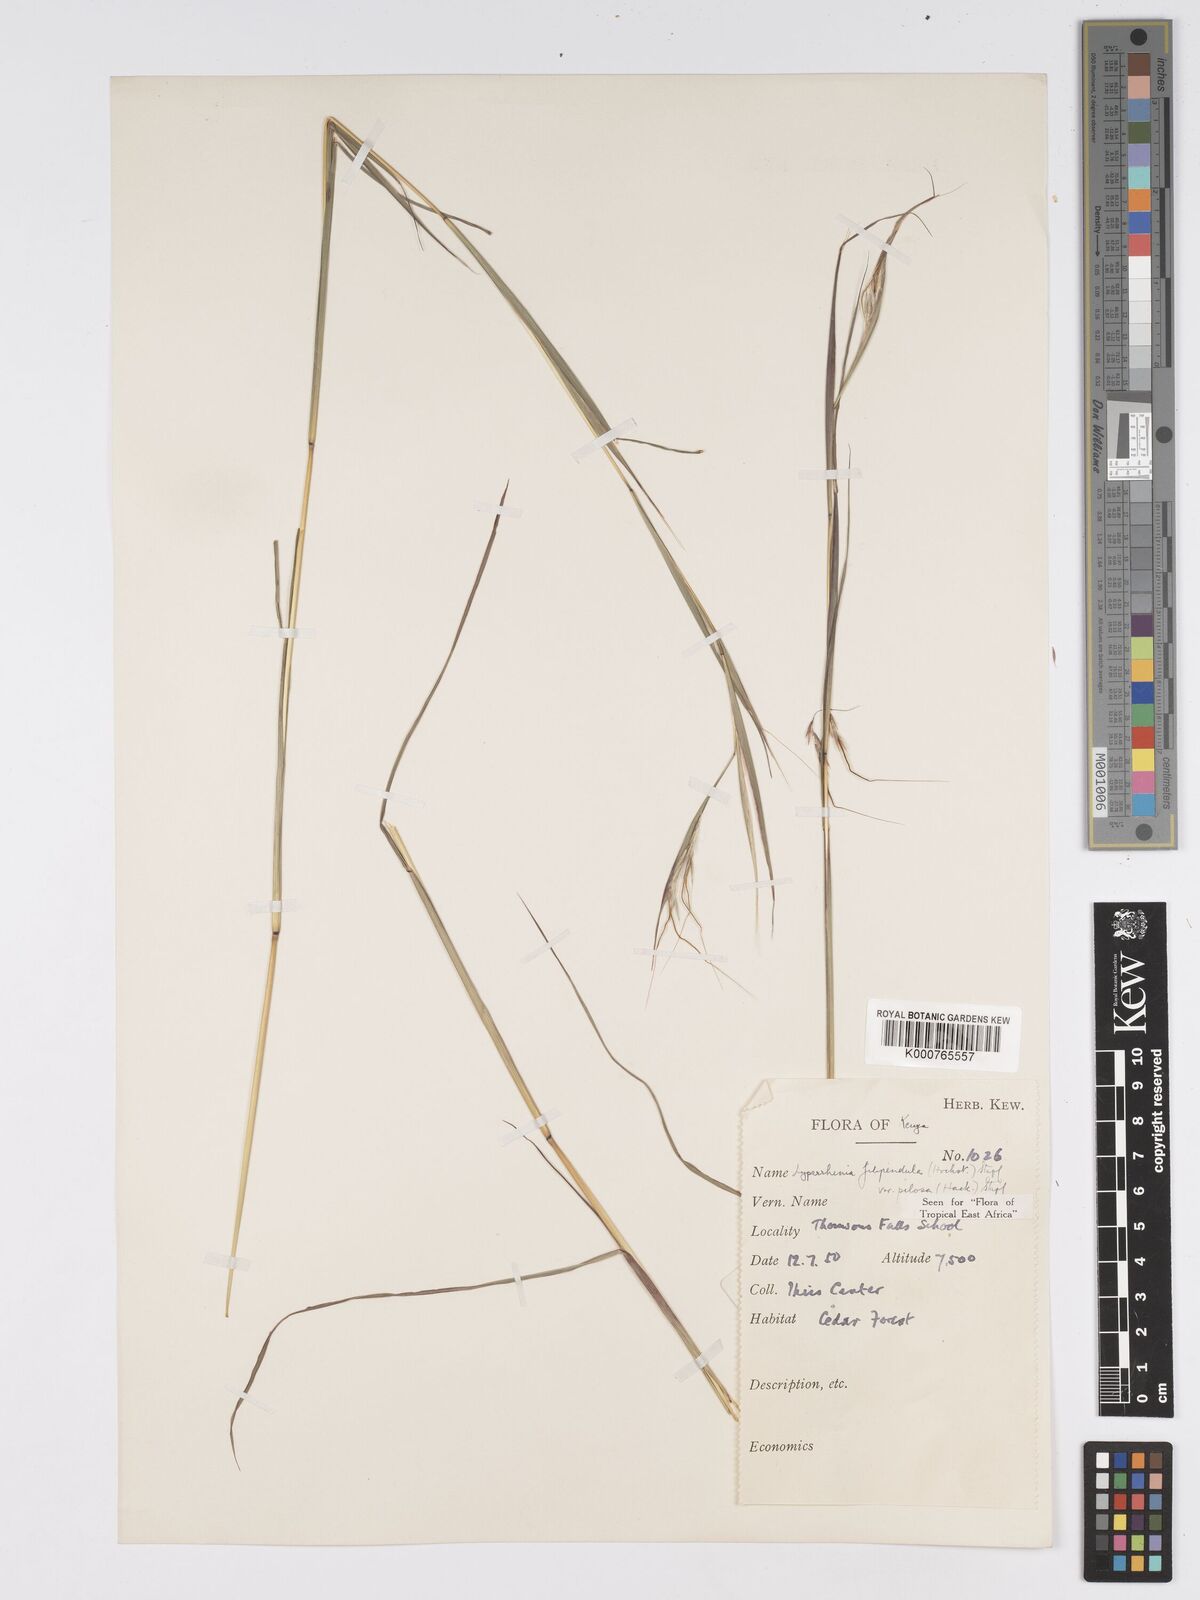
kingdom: Plantae
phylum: Tracheophyta
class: Liliopsida
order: Poales
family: Poaceae
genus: Hyparrhenia
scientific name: Hyparrhenia filipendula
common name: Tambookie grass
